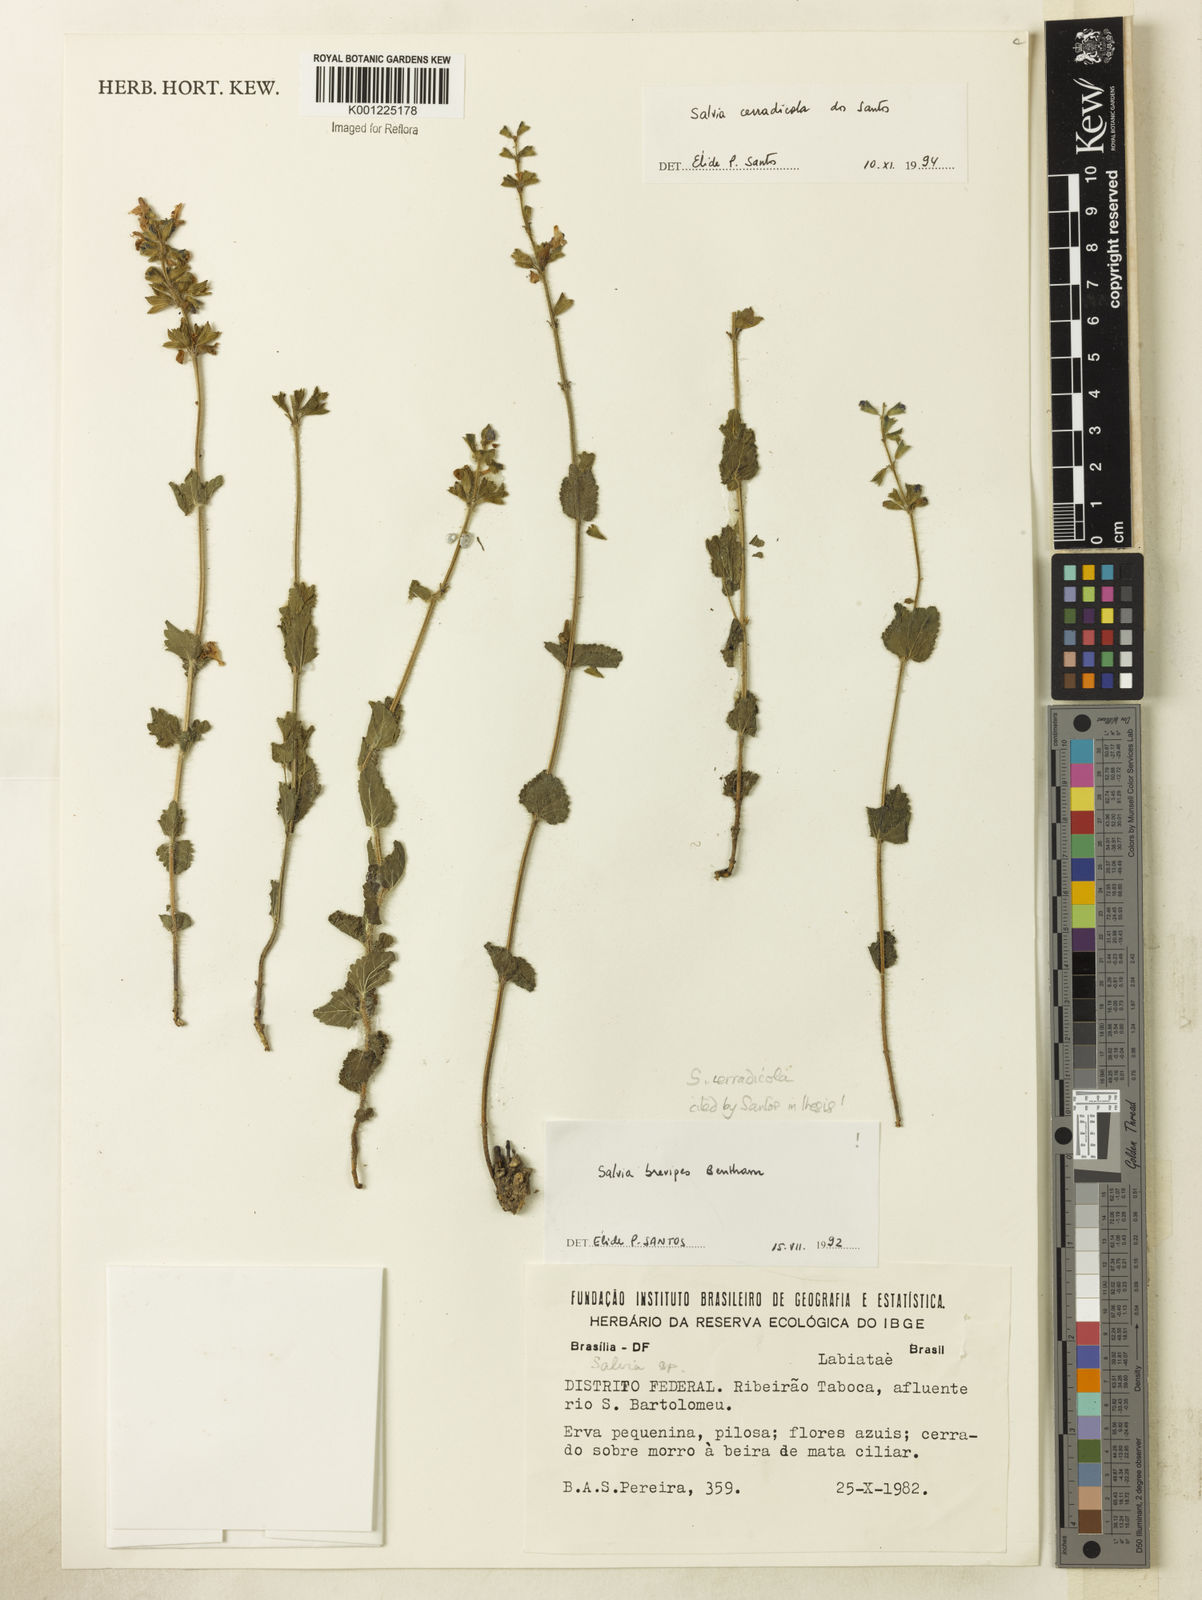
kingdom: Plantae
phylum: Tracheophyta
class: Magnoliopsida
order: Lamiales
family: Lamiaceae
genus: Salvia
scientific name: Salvia cerradicola
